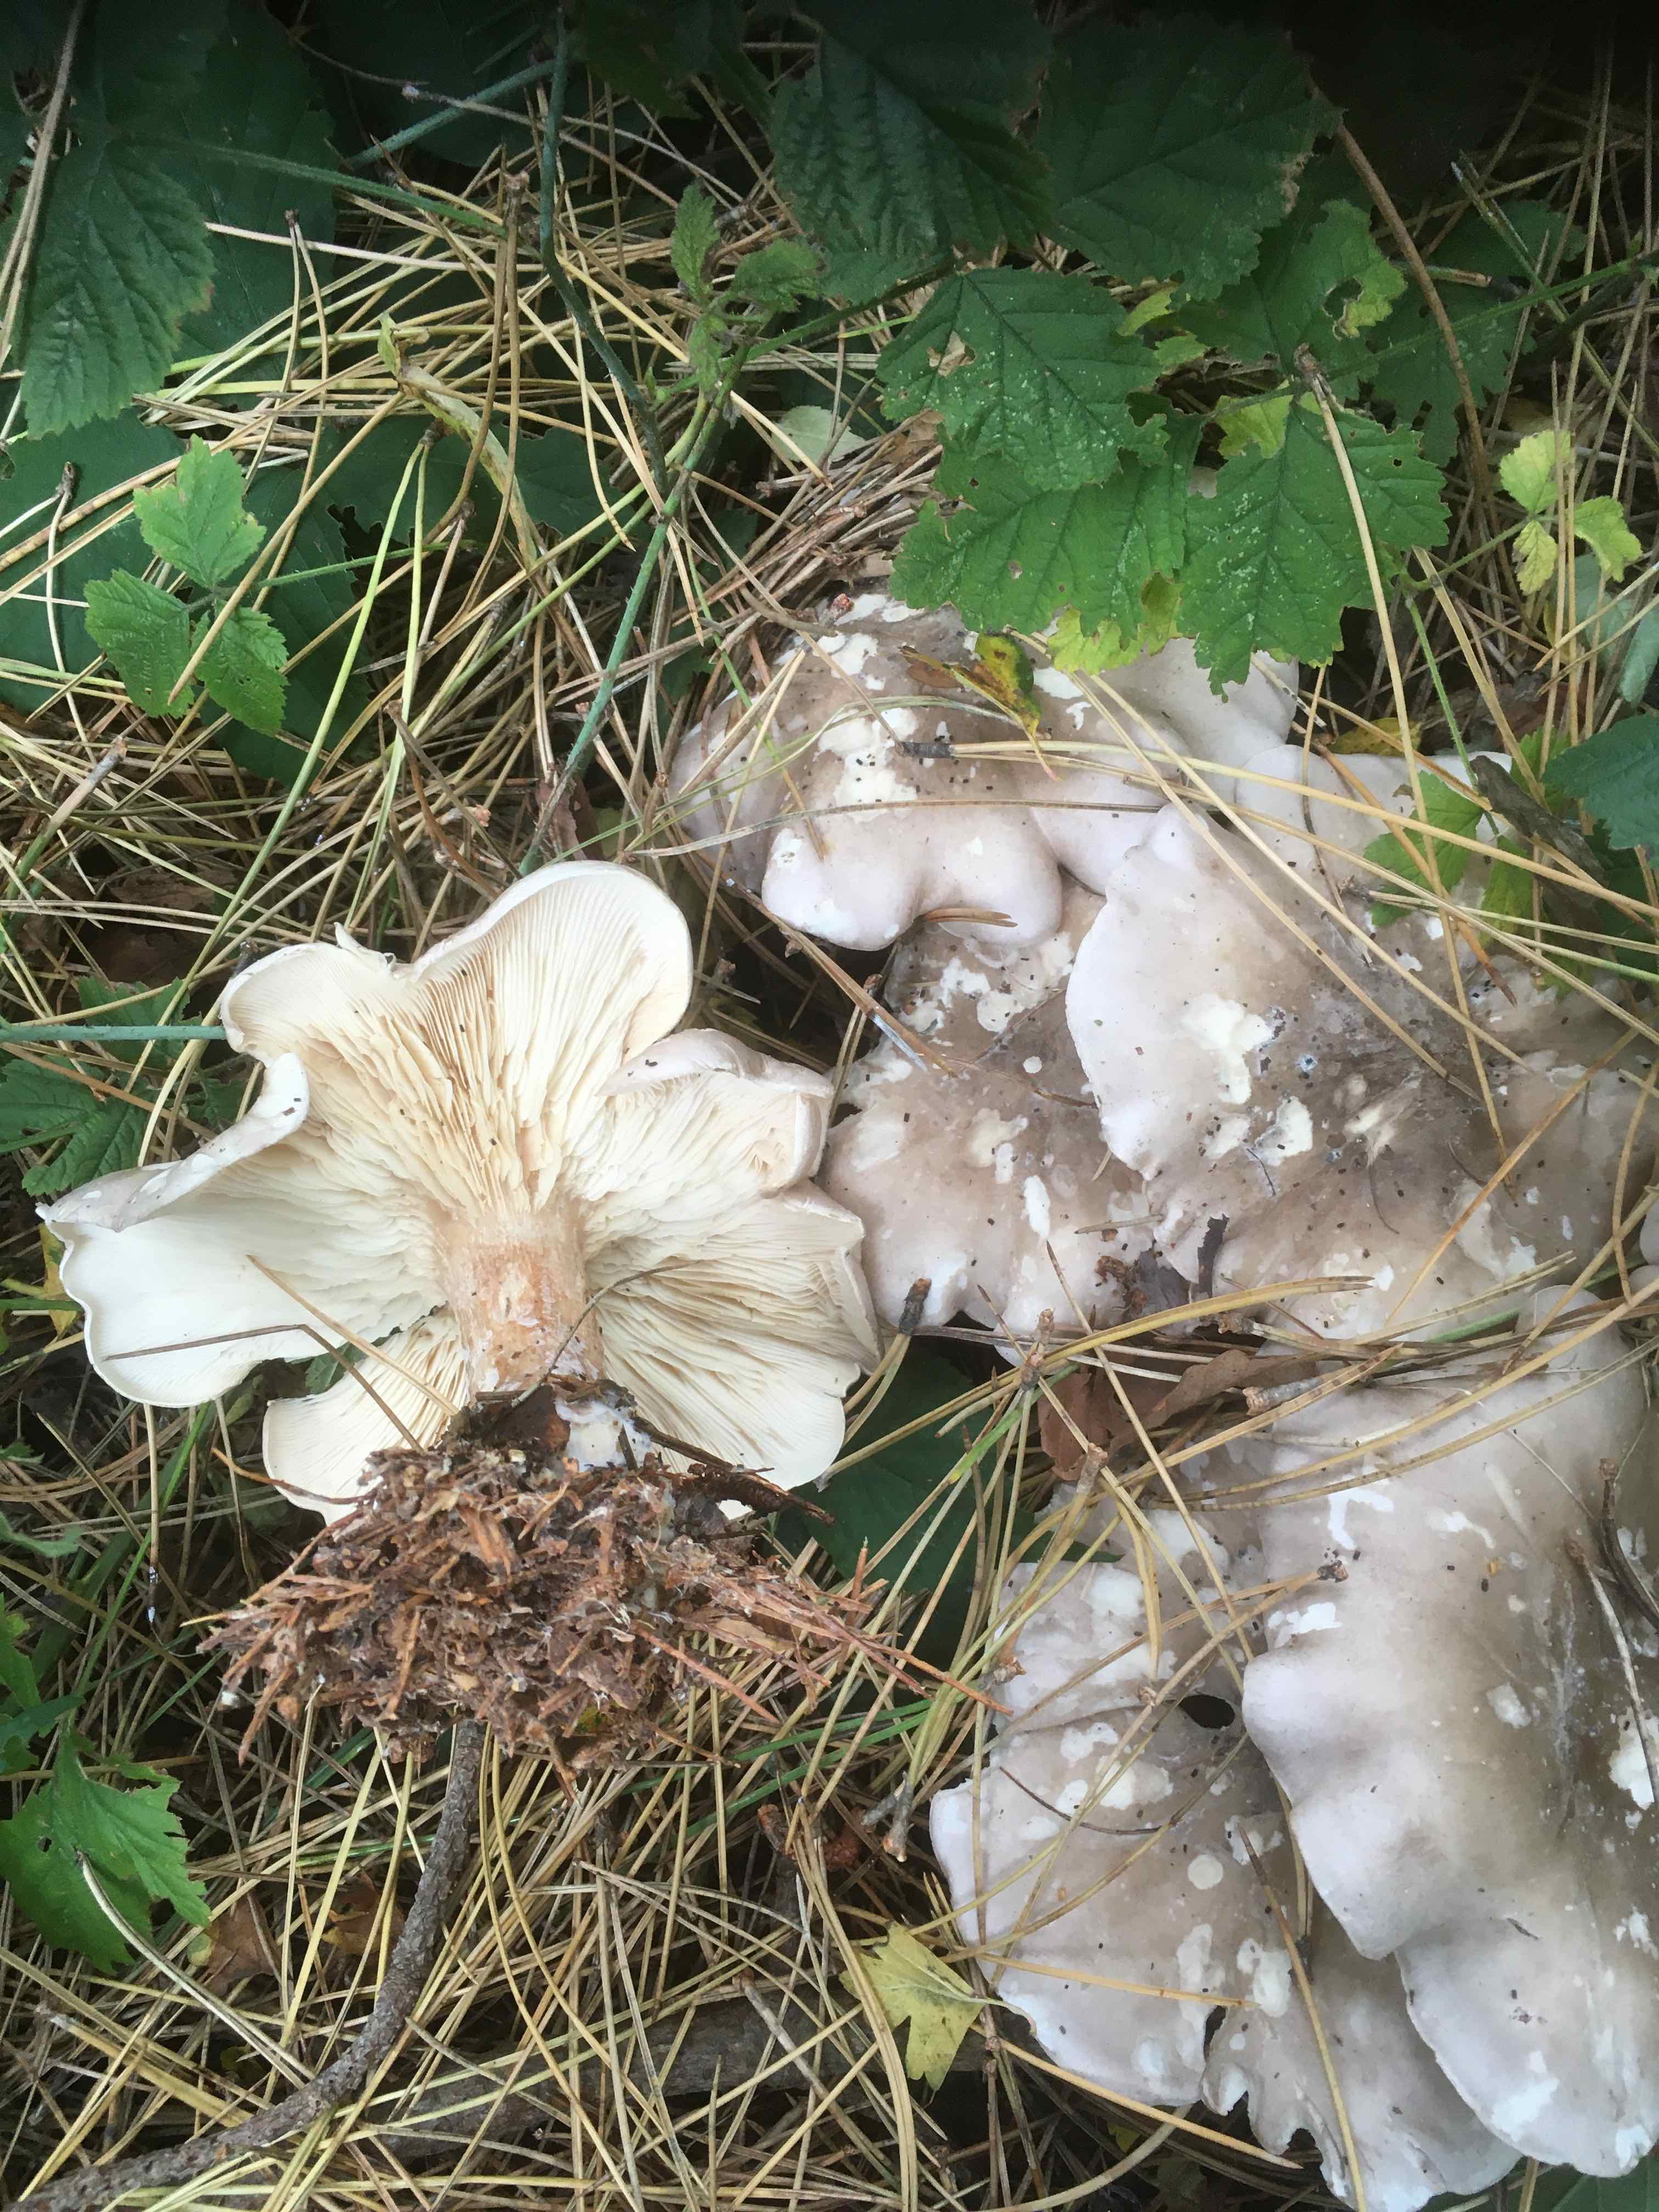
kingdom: Fungi
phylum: Basidiomycota
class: Agaricomycetes
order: Agaricales
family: Tricholomataceae
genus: Clitocybe
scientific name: Clitocybe nebularis
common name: tåge-tragthat
